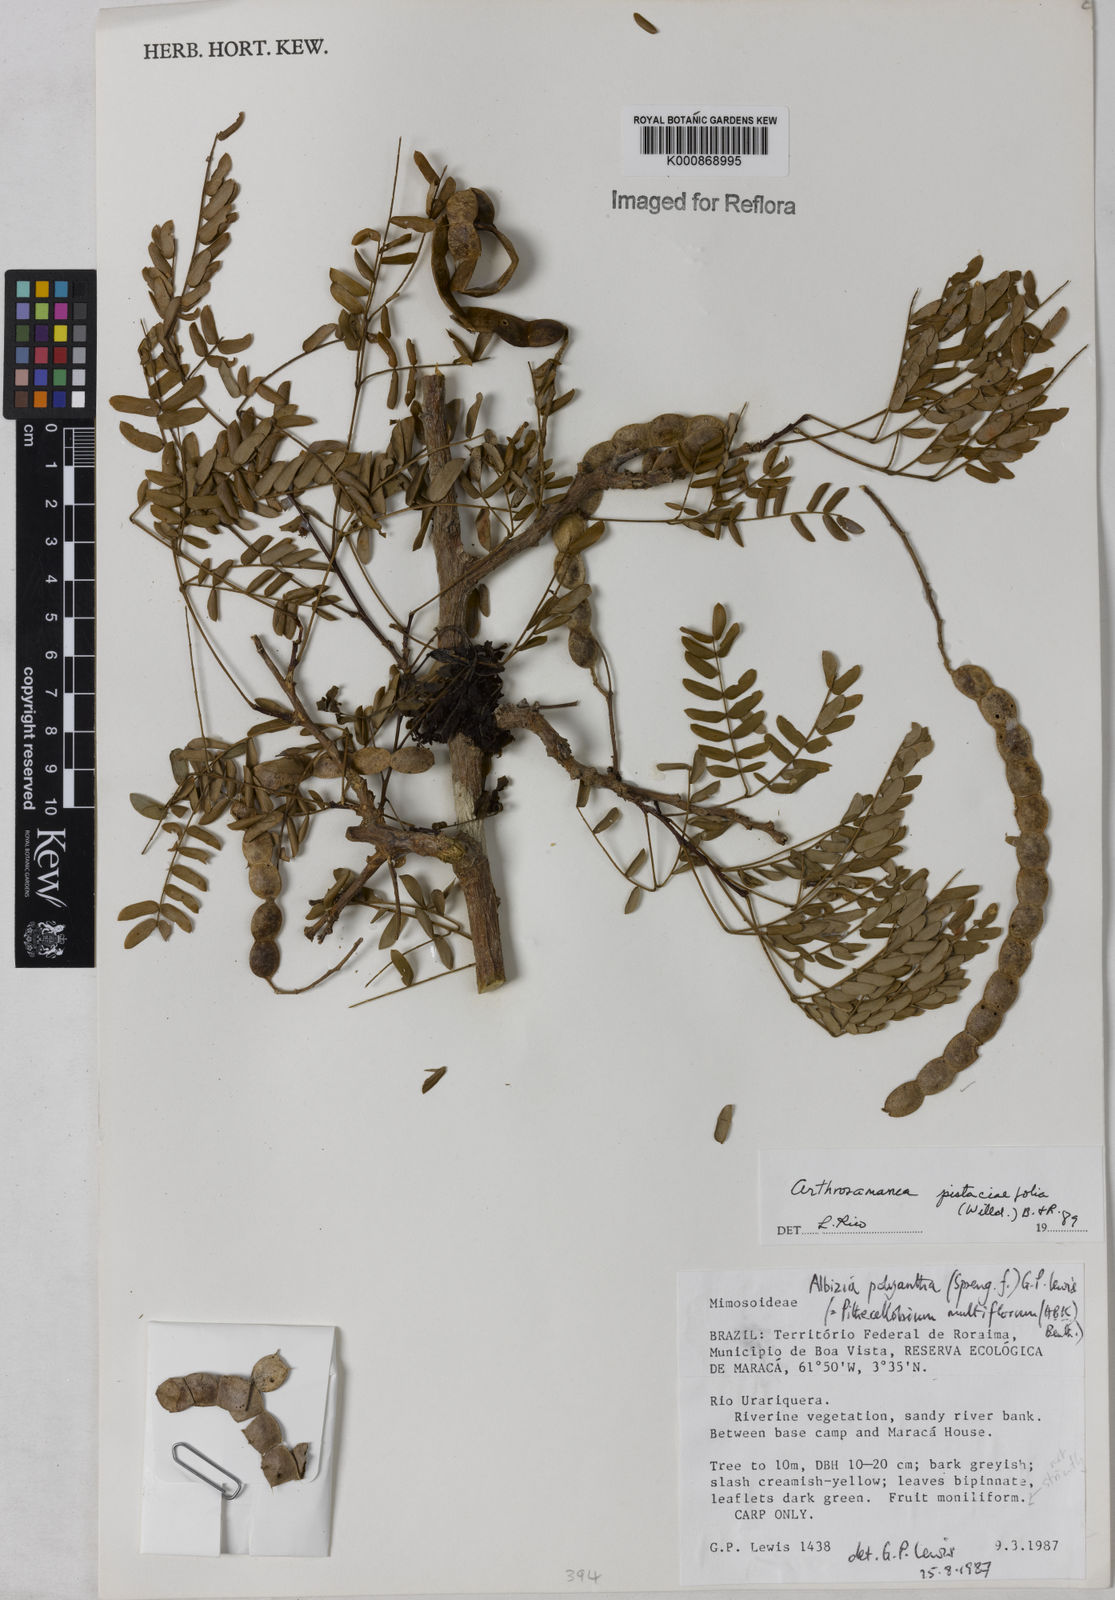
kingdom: Plantae
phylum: Tracheophyta
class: Magnoliopsida
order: Fabales
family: Fabaceae
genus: Albizia
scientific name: Albizia pistaciifolia
